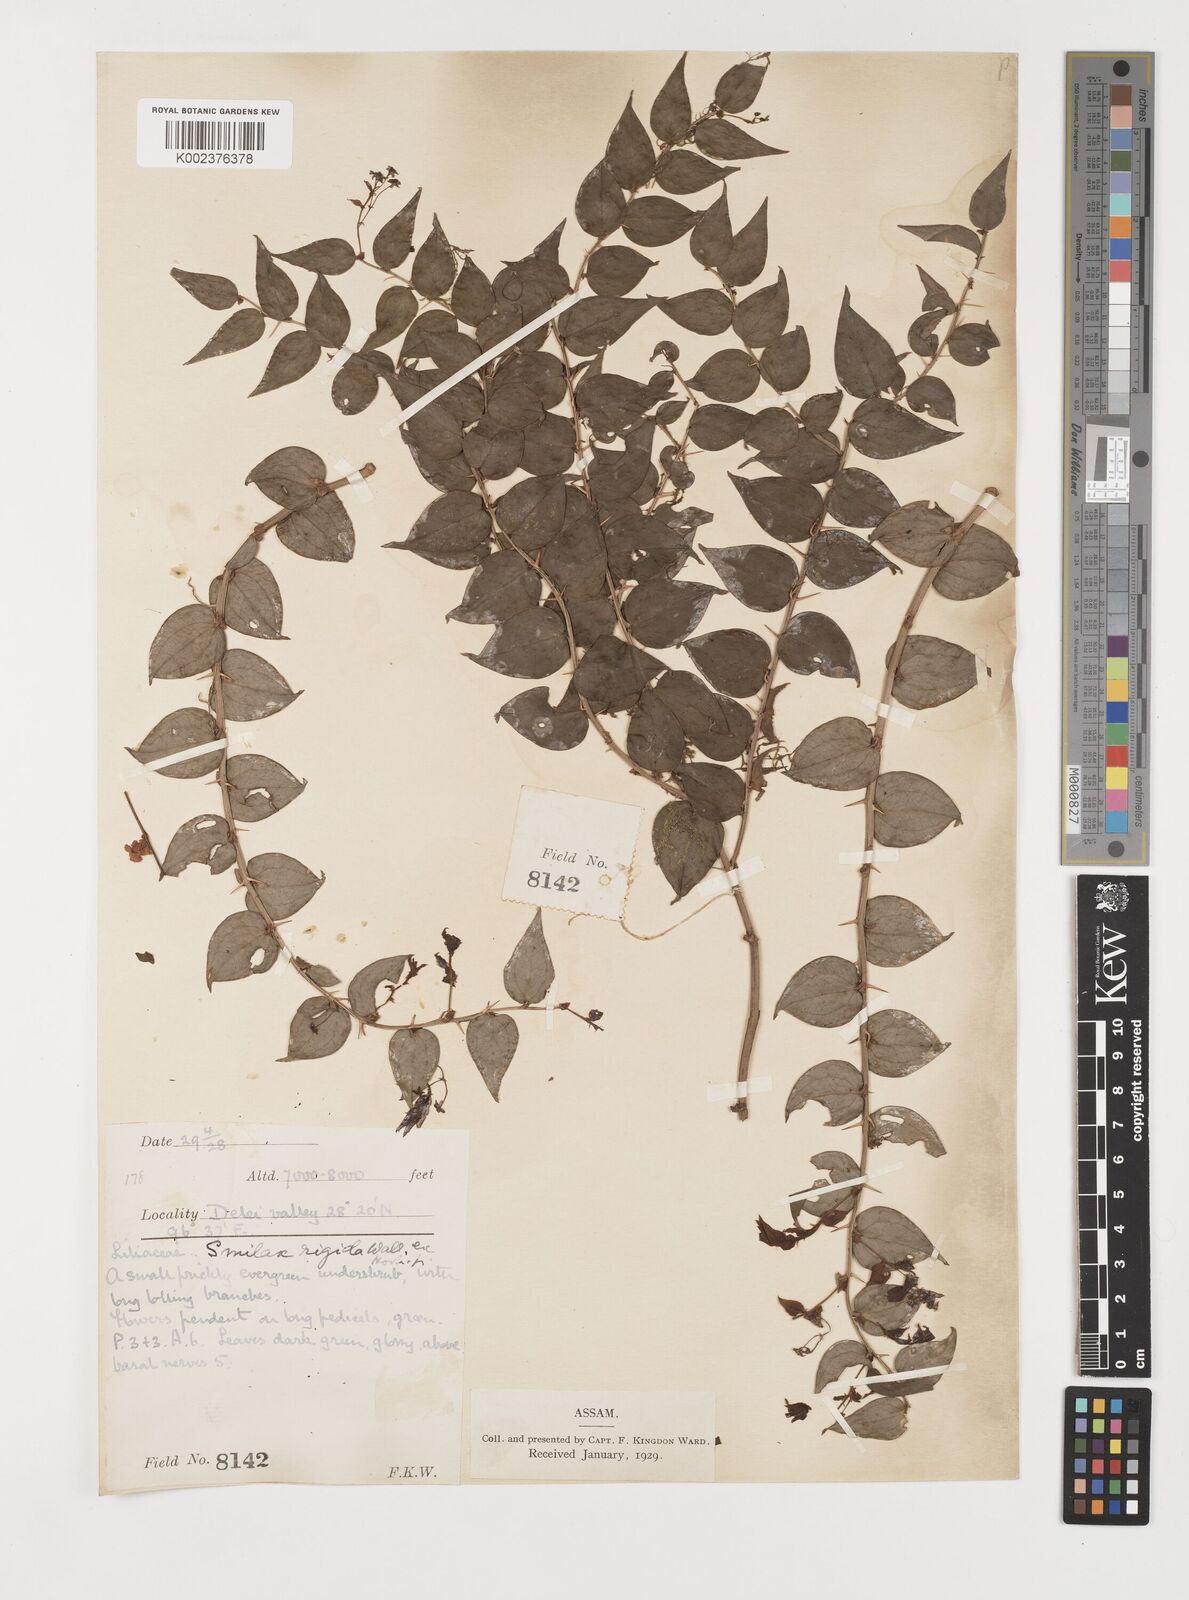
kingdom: Plantae
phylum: Tracheophyta
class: Liliopsida
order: Liliales
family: Smilacaceae
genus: Smilax
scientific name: Smilax
